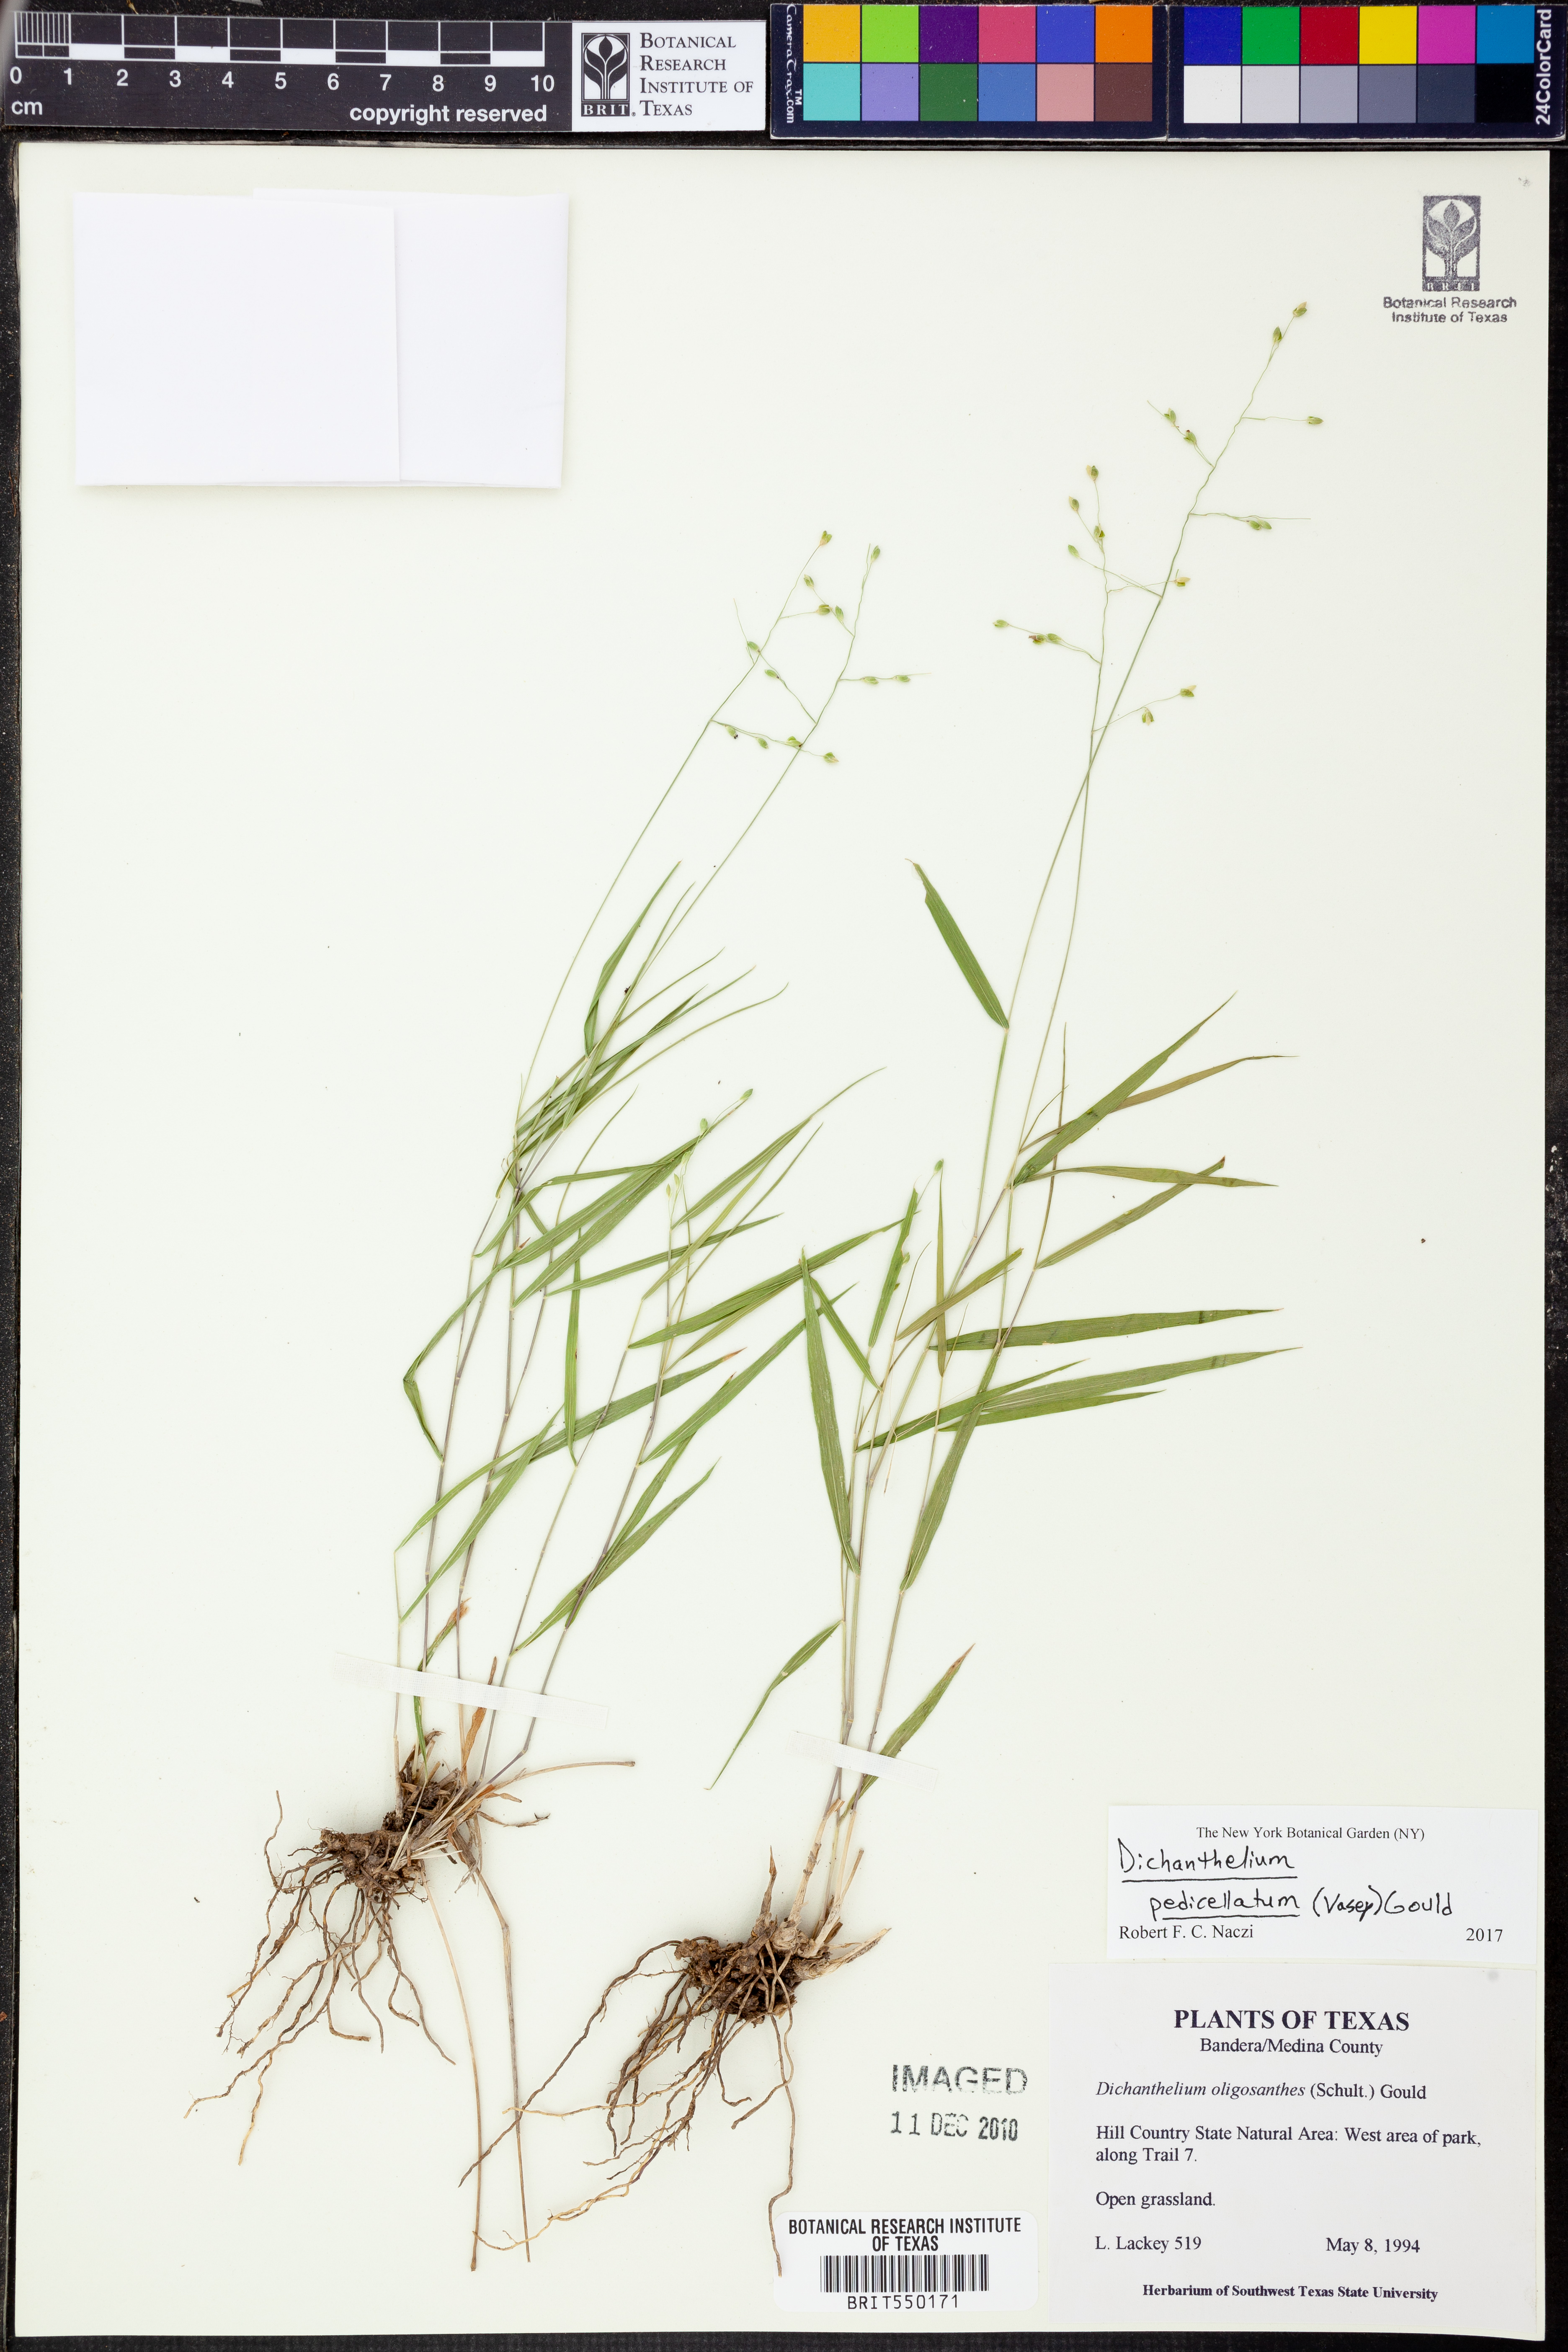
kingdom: Plantae
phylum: Tracheophyta
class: Liliopsida
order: Poales
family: Poaceae
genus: Dichanthelium
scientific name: Dichanthelium transiens
